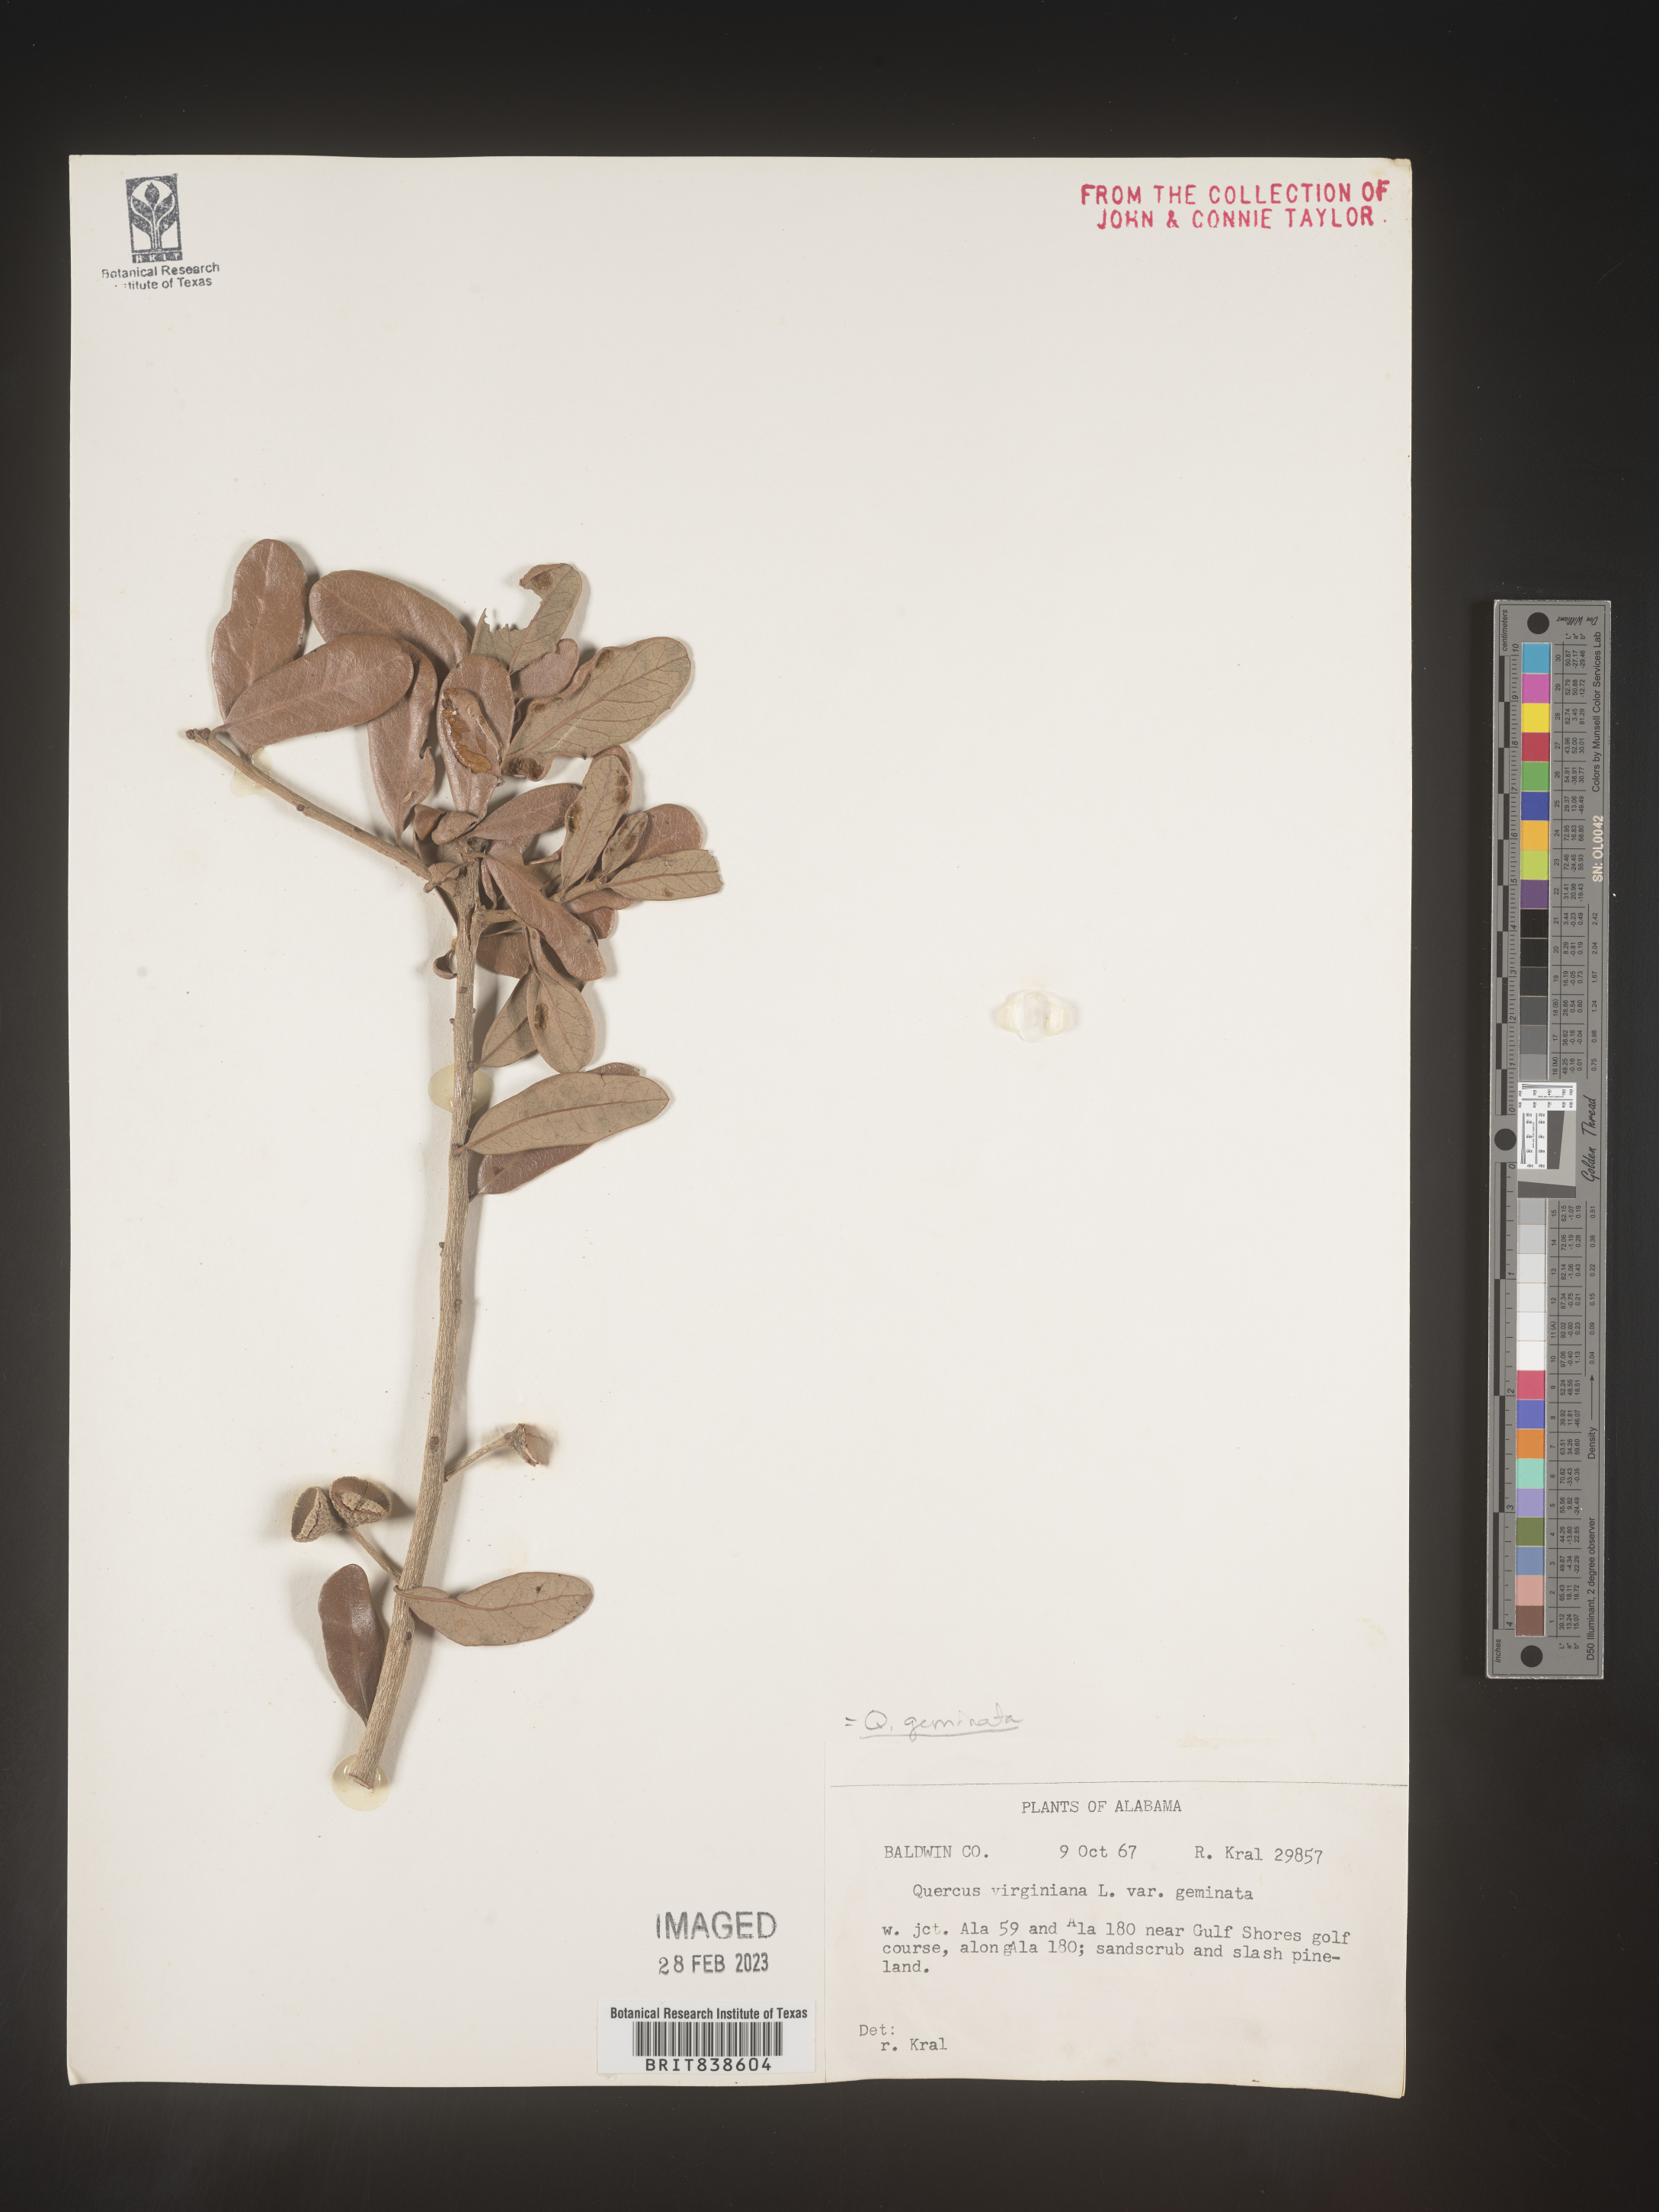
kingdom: Plantae
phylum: Tracheophyta
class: Magnoliopsida
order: Fagales
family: Fagaceae
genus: Quercus
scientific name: Quercus geminata
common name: Sand live oak
